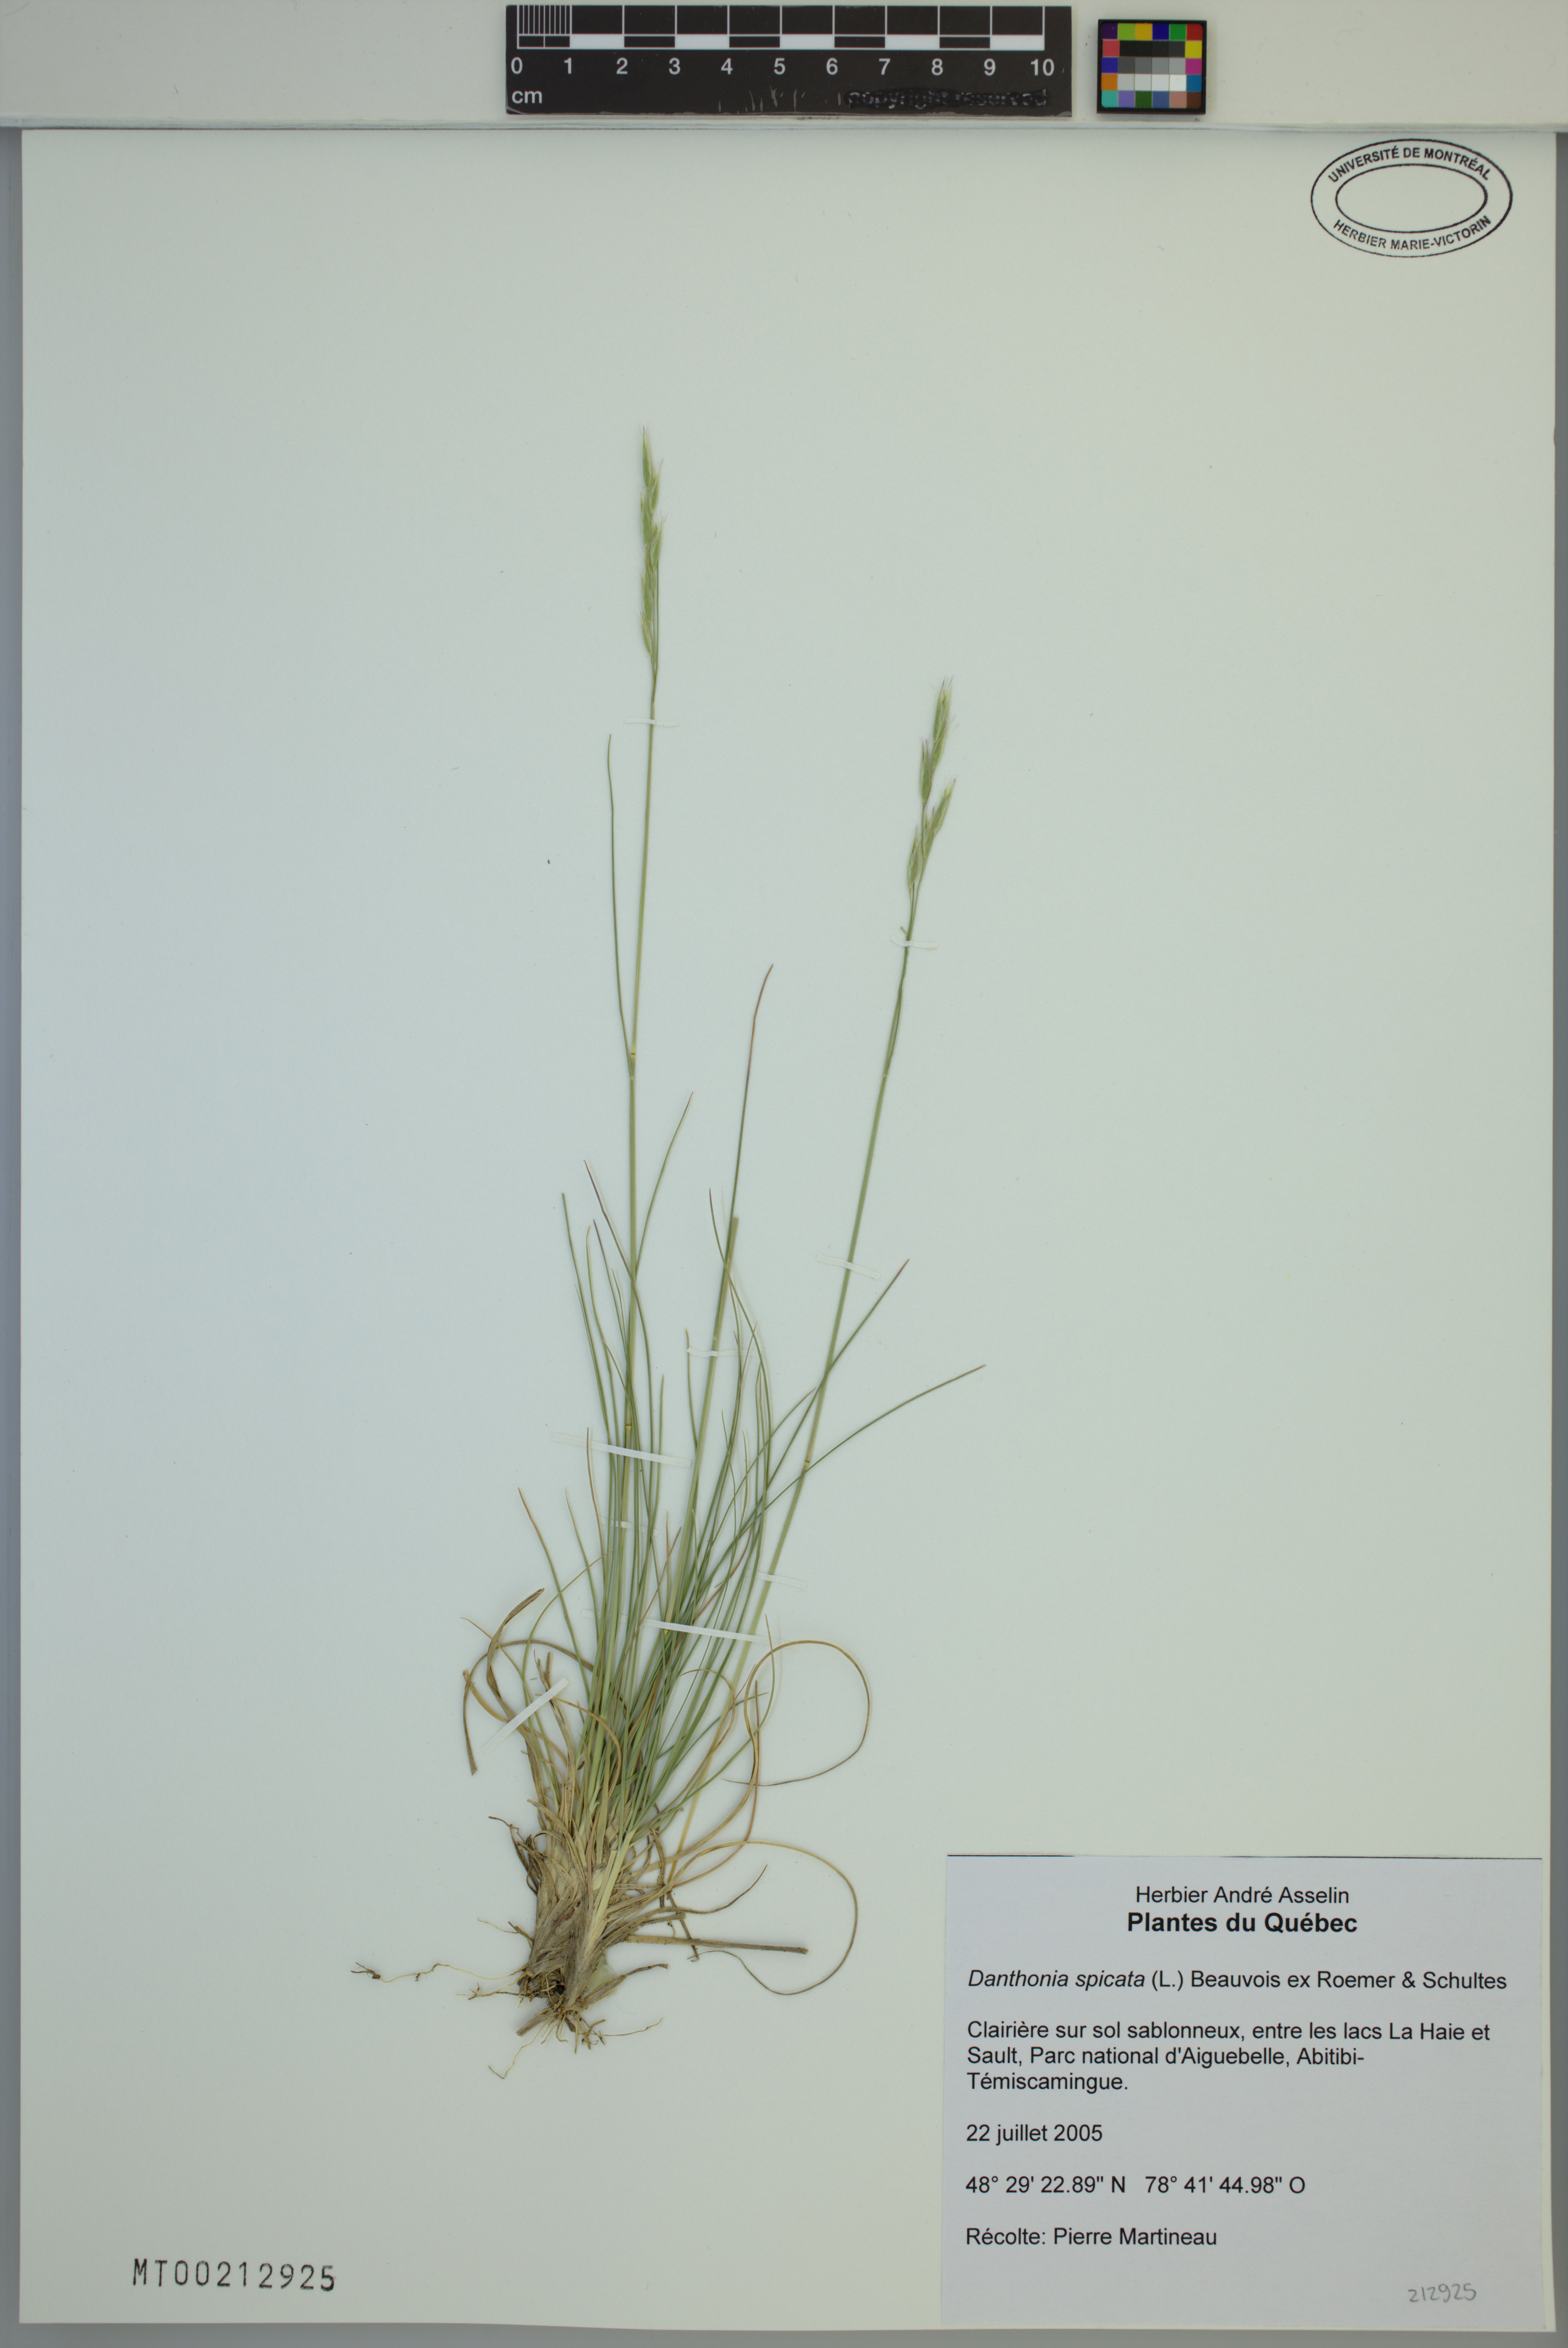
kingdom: Plantae
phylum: Tracheophyta
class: Liliopsida
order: Poales
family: Poaceae
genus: Danthonia
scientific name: Danthonia spicata
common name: Common wild oatgrass
